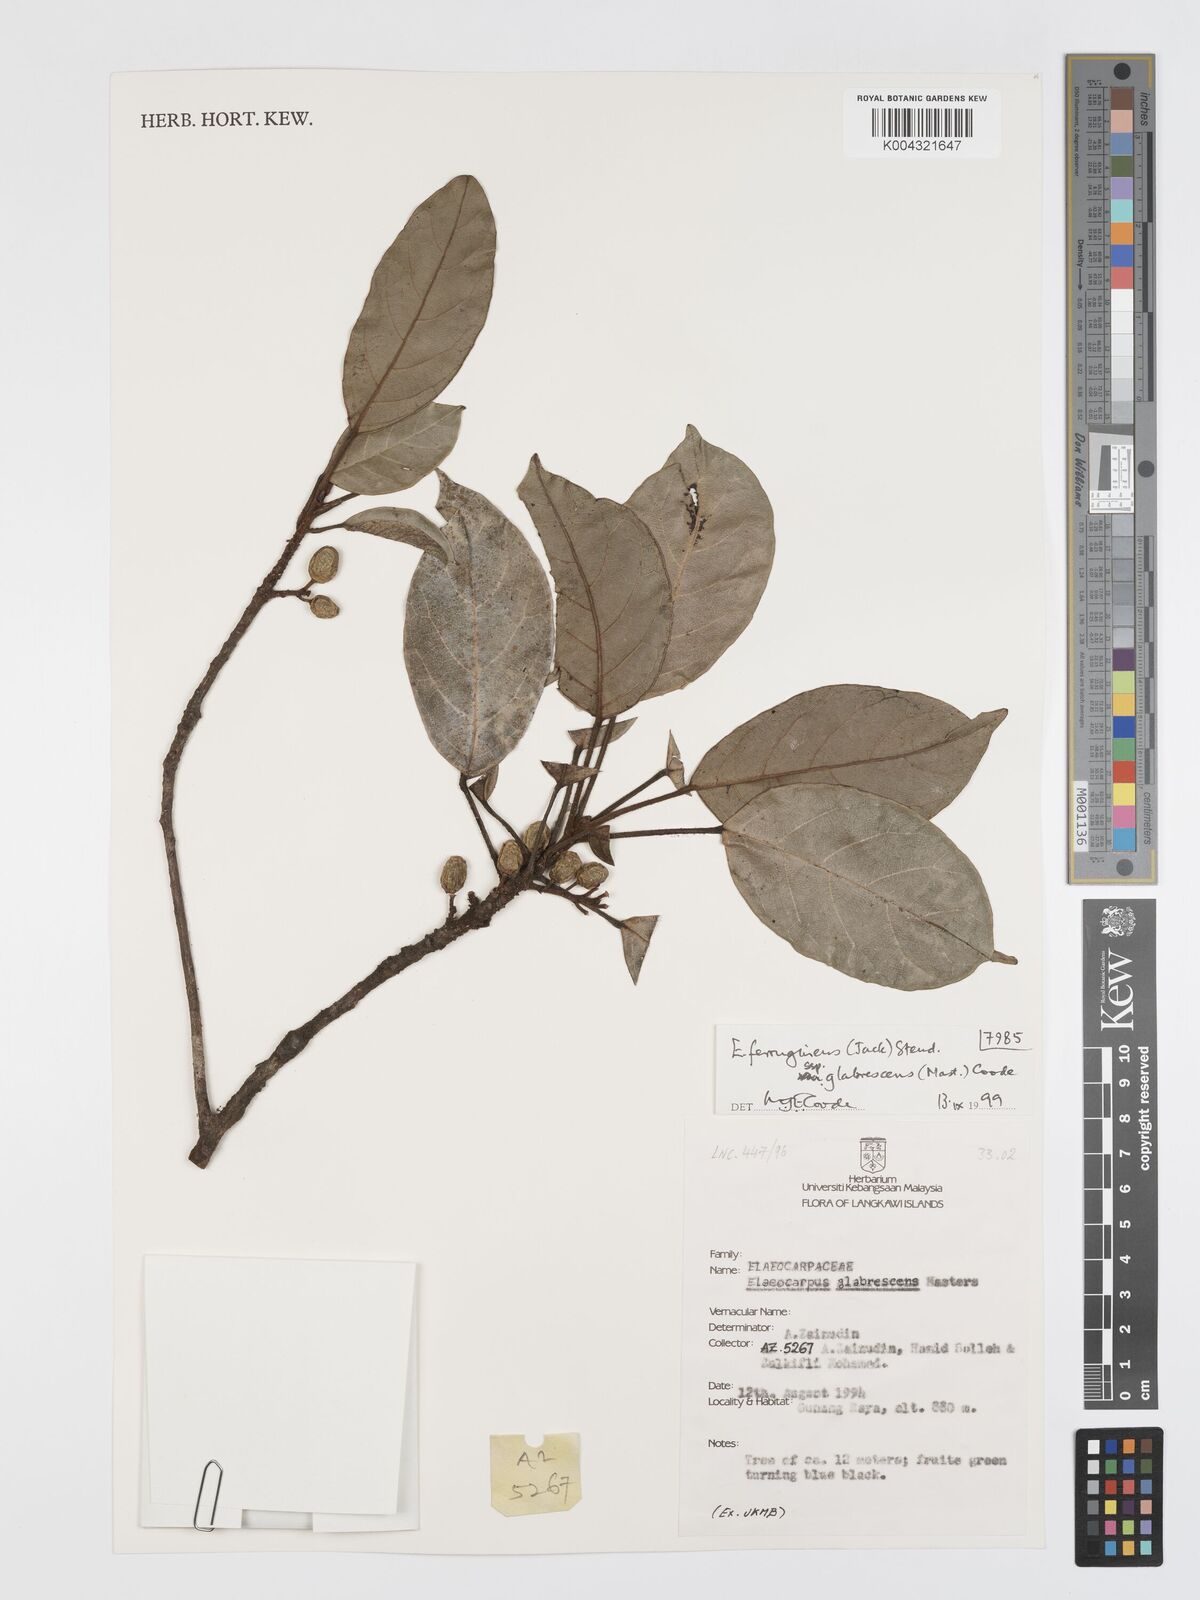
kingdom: Plantae
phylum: Tracheophyta
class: Magnoliopsida
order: Oxalidales
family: Elaeocarpaceae
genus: Elaeocarpus
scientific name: Elaeocarpus ferrugineus
